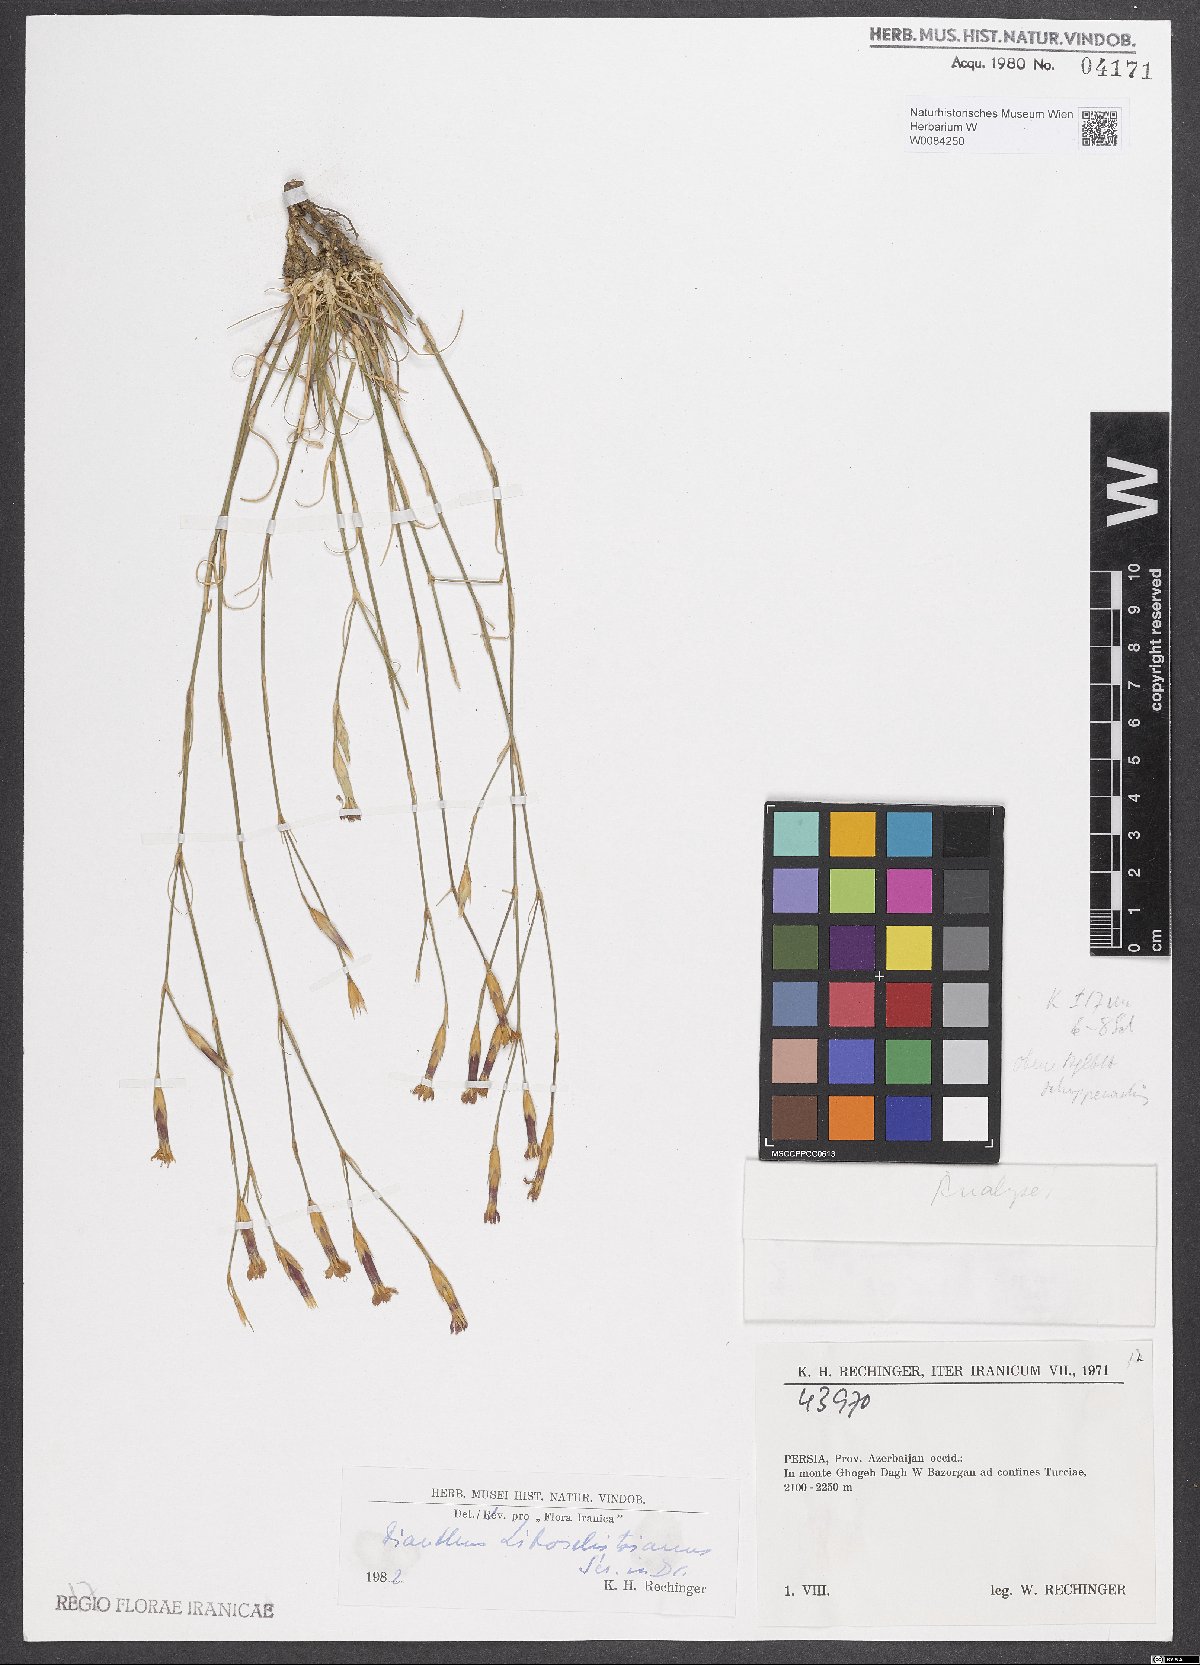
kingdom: Plantae
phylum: Tracheophyta
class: Magnoliopsida
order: Caryophyllales
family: Caryophyllaceae
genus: Dianthus
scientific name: Dianthus cretaceus
